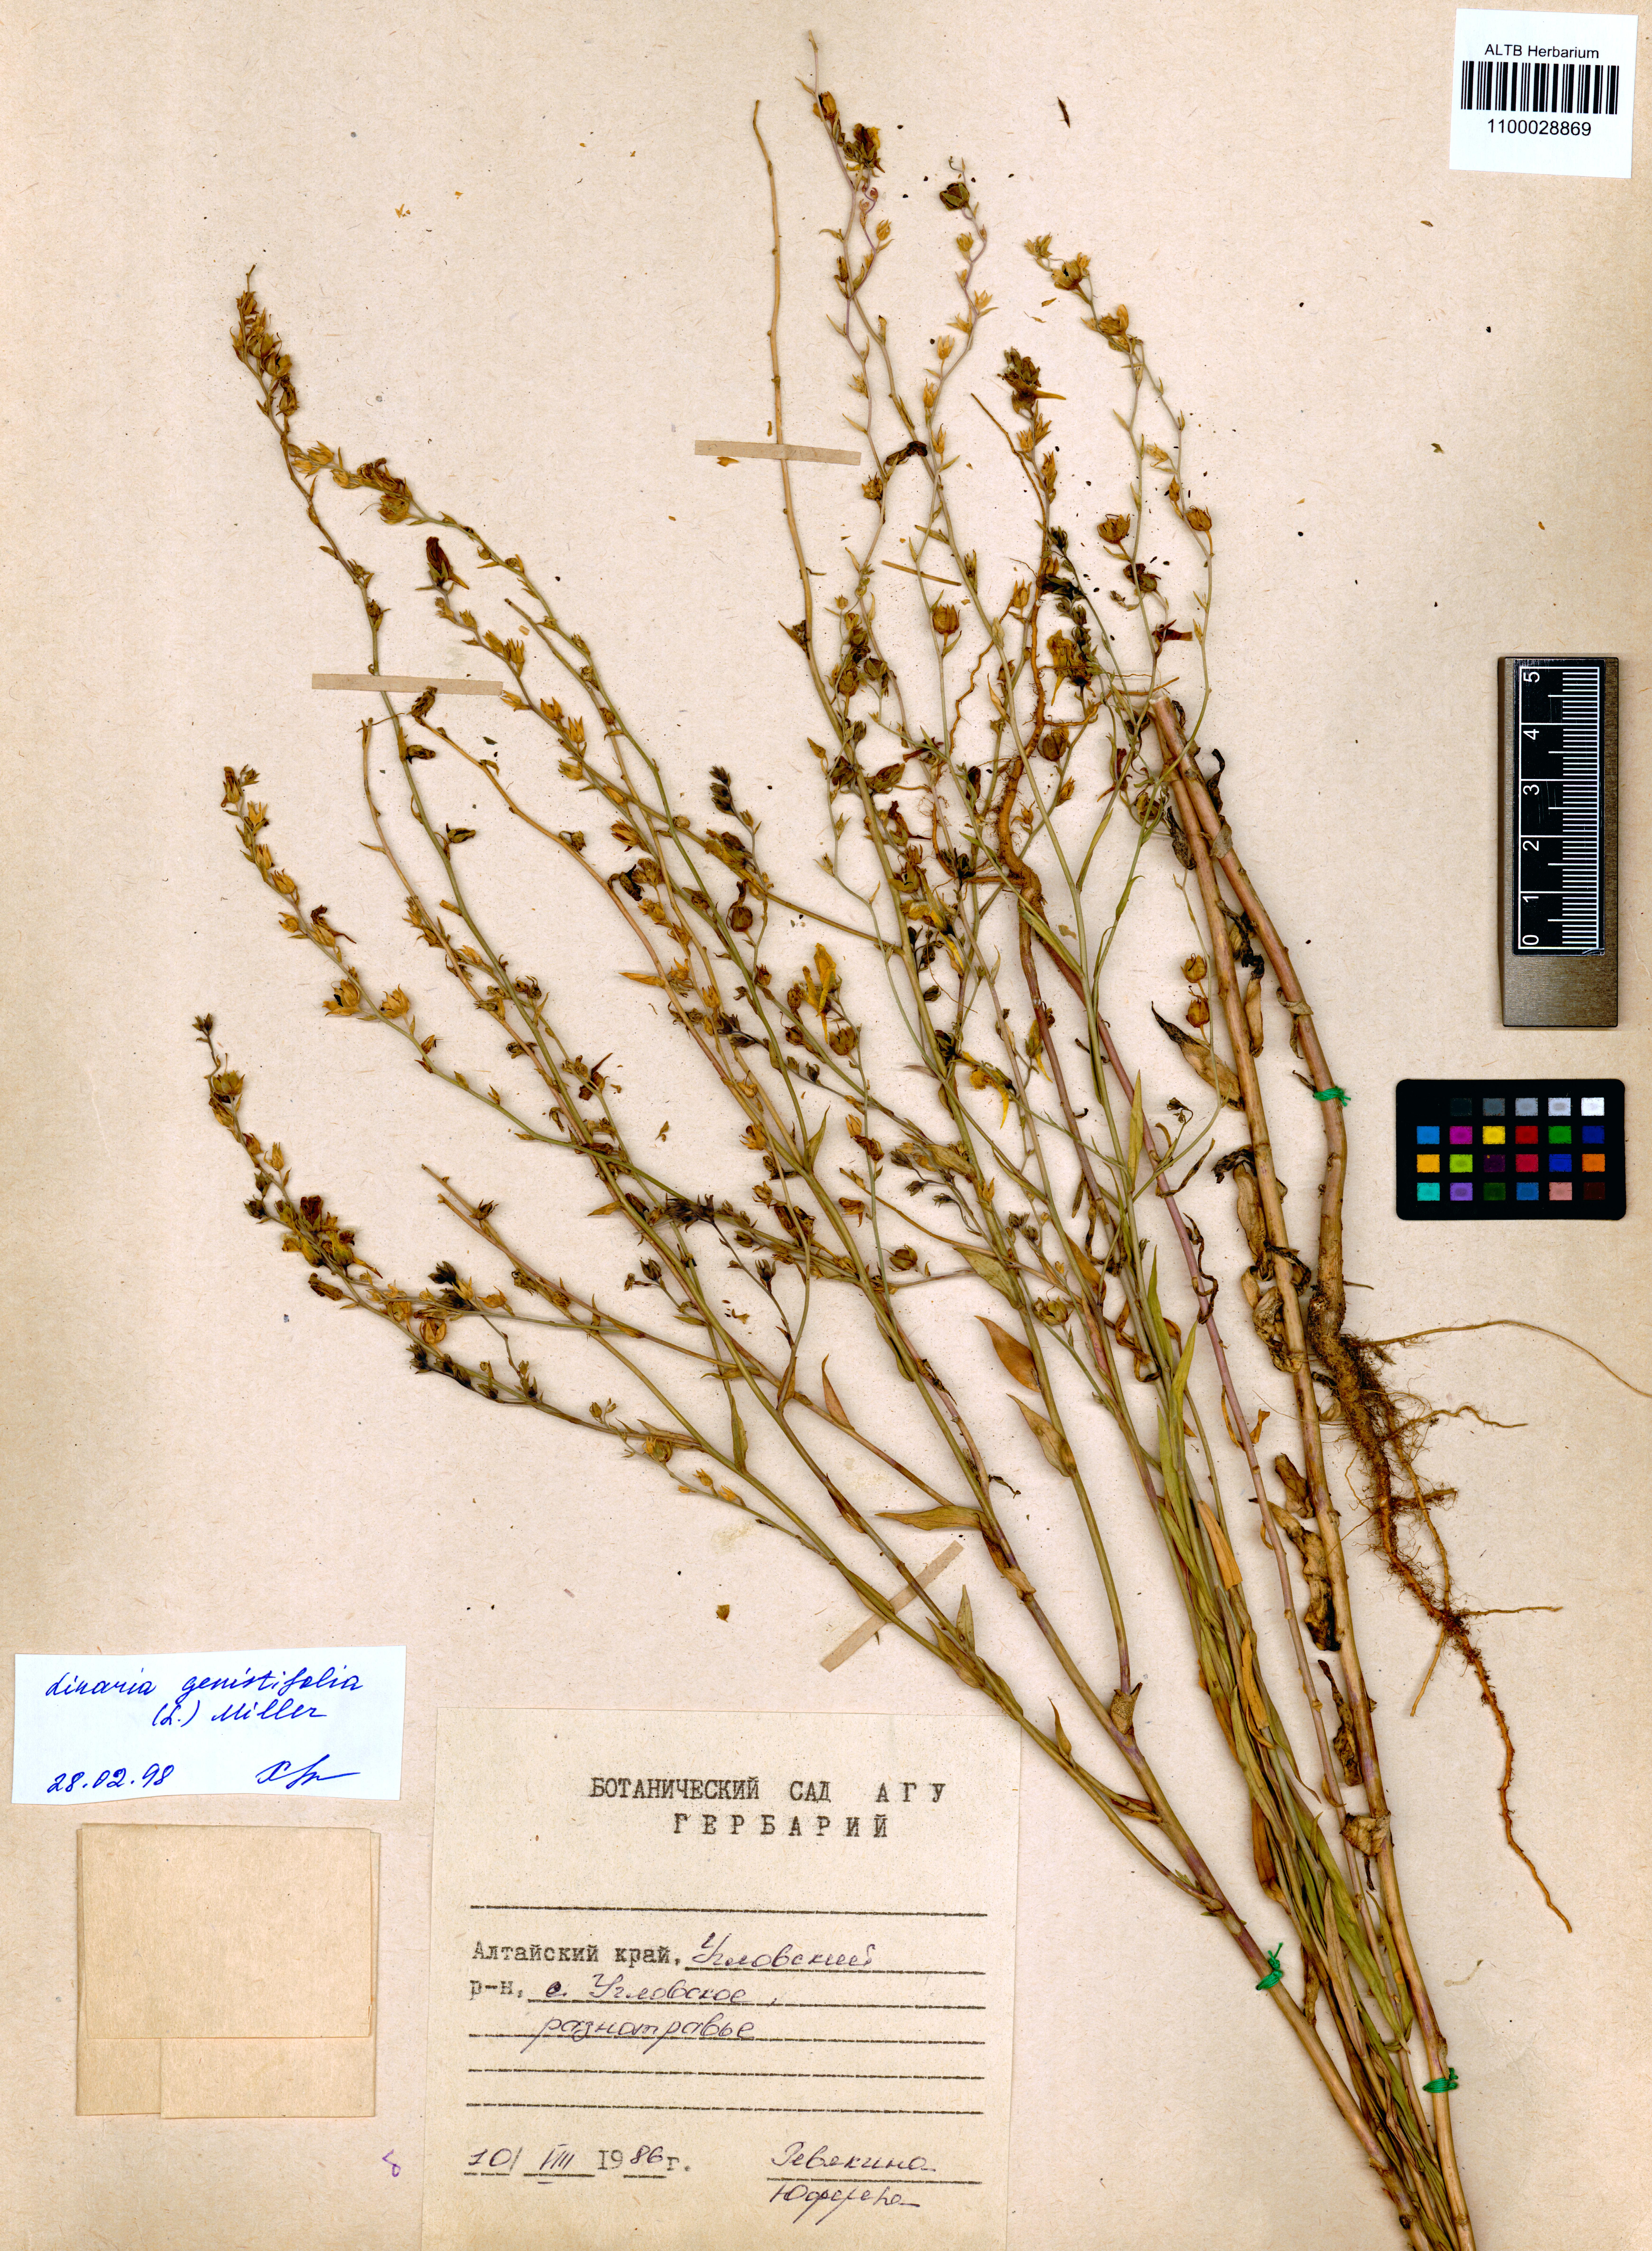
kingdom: Plantae
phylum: Tracheophyta
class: Magnoliopsida
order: Lamiales
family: Plantaginaceae
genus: Linaria
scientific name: Linaria genistifolia
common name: Broomleaf toadflax
